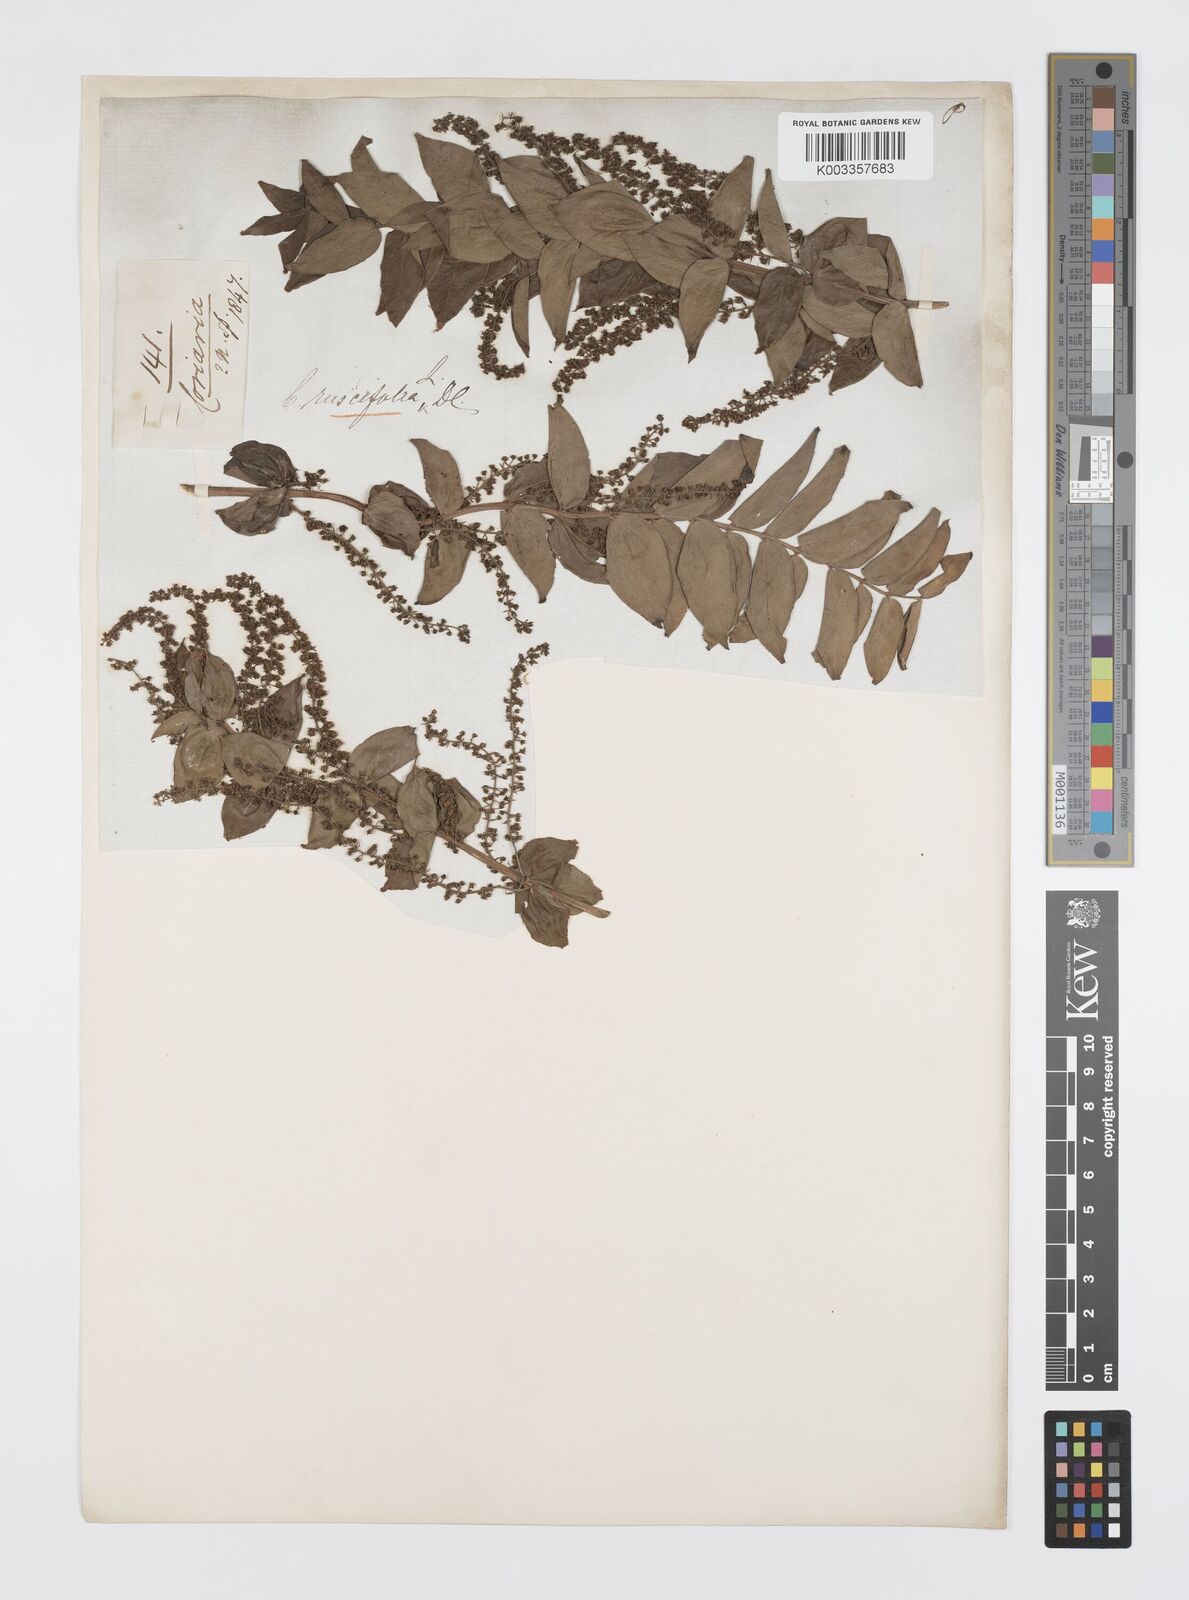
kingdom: Plantae
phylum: Tracheophyta
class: Magnoliopsida
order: Cucurbitales
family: Coriariaceae
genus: Coriaria
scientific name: Coriaria sarmentosa
